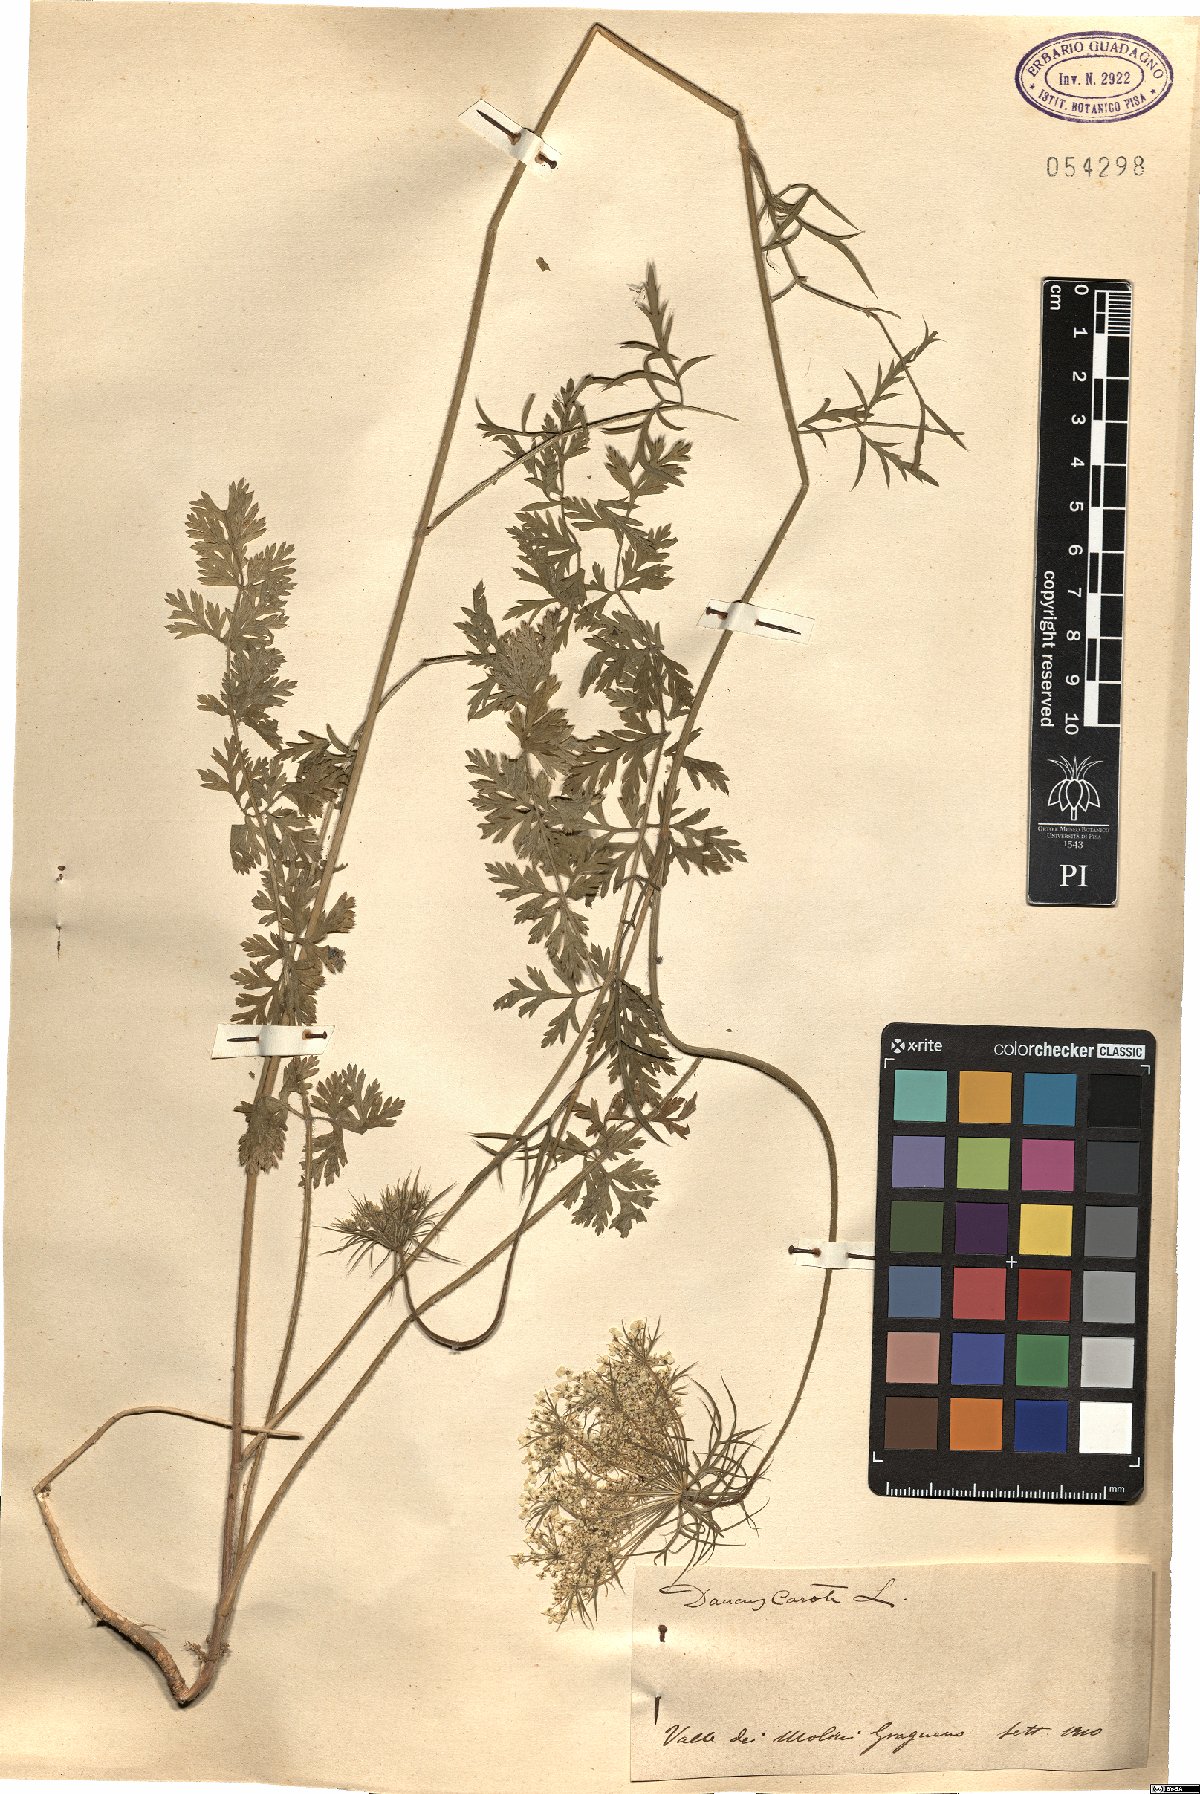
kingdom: Plantae
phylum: Tracheophyta
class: Magnoliopsida
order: Apiales
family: Apiaceae
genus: Daucus
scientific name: Daucus carota
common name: Wild carrot
